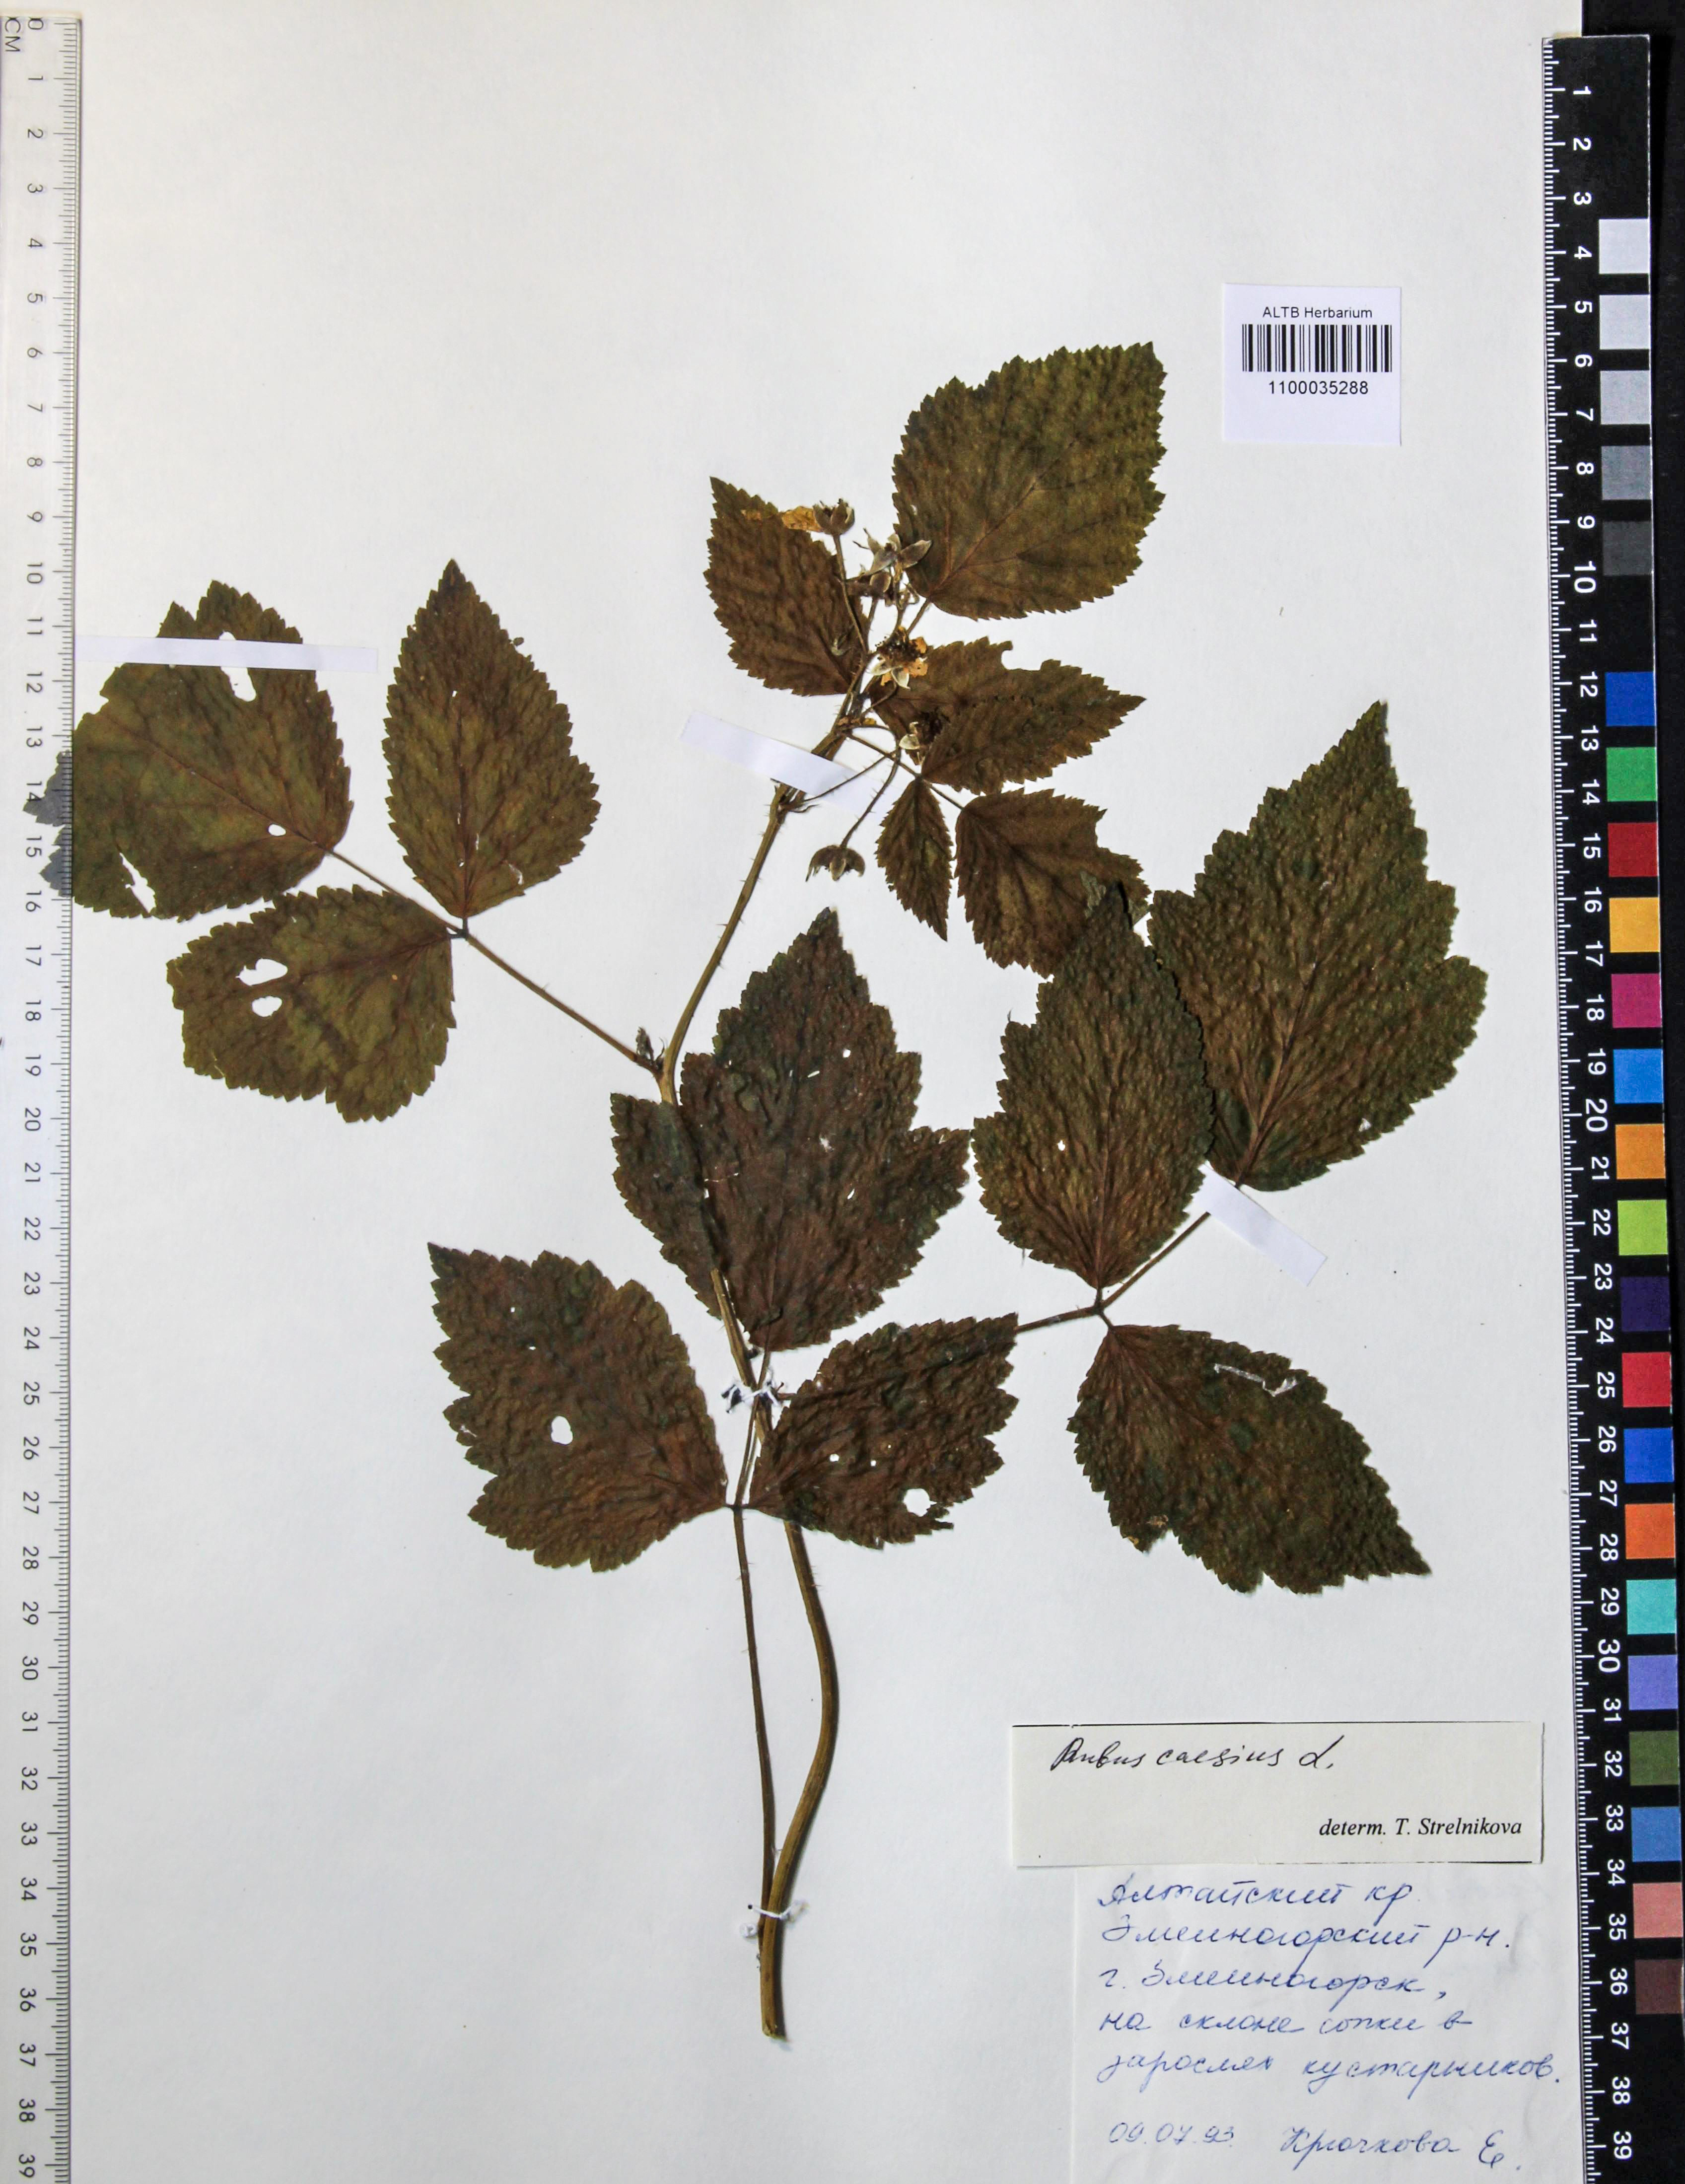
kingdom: Plantae
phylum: Tracheophyta
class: Magnoliopsida
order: Rosales
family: Rosaceae
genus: Rubus
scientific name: Rubus caesius
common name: Dewberry
